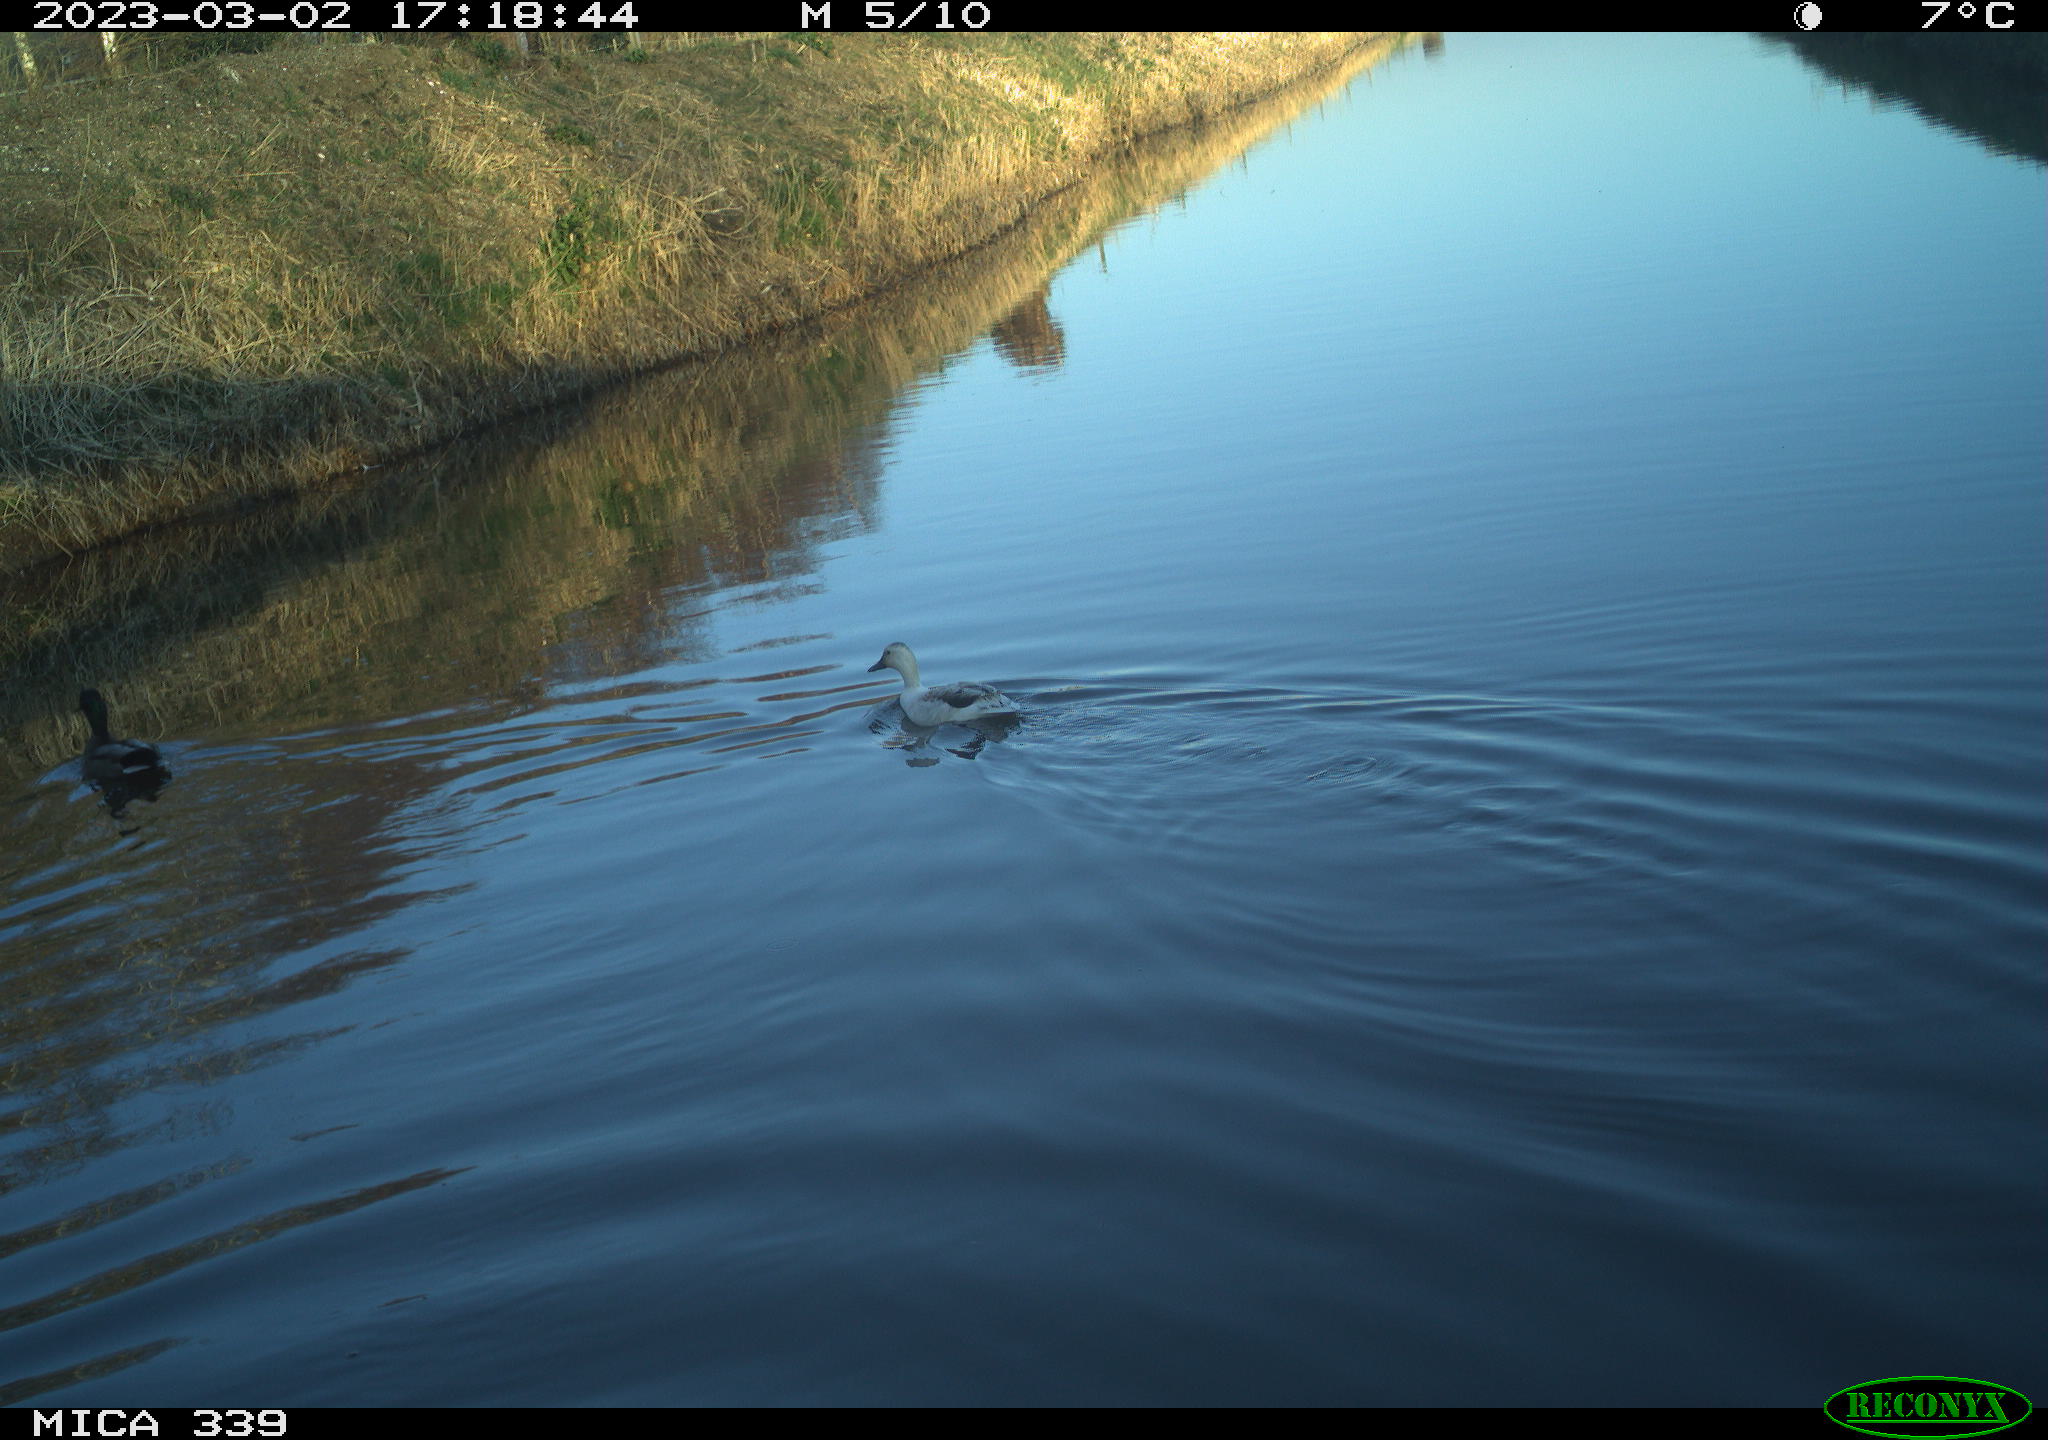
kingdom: Animalia
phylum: Chordata
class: Aves
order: Anseriformes
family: Anatidae
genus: Anas
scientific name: Anas
